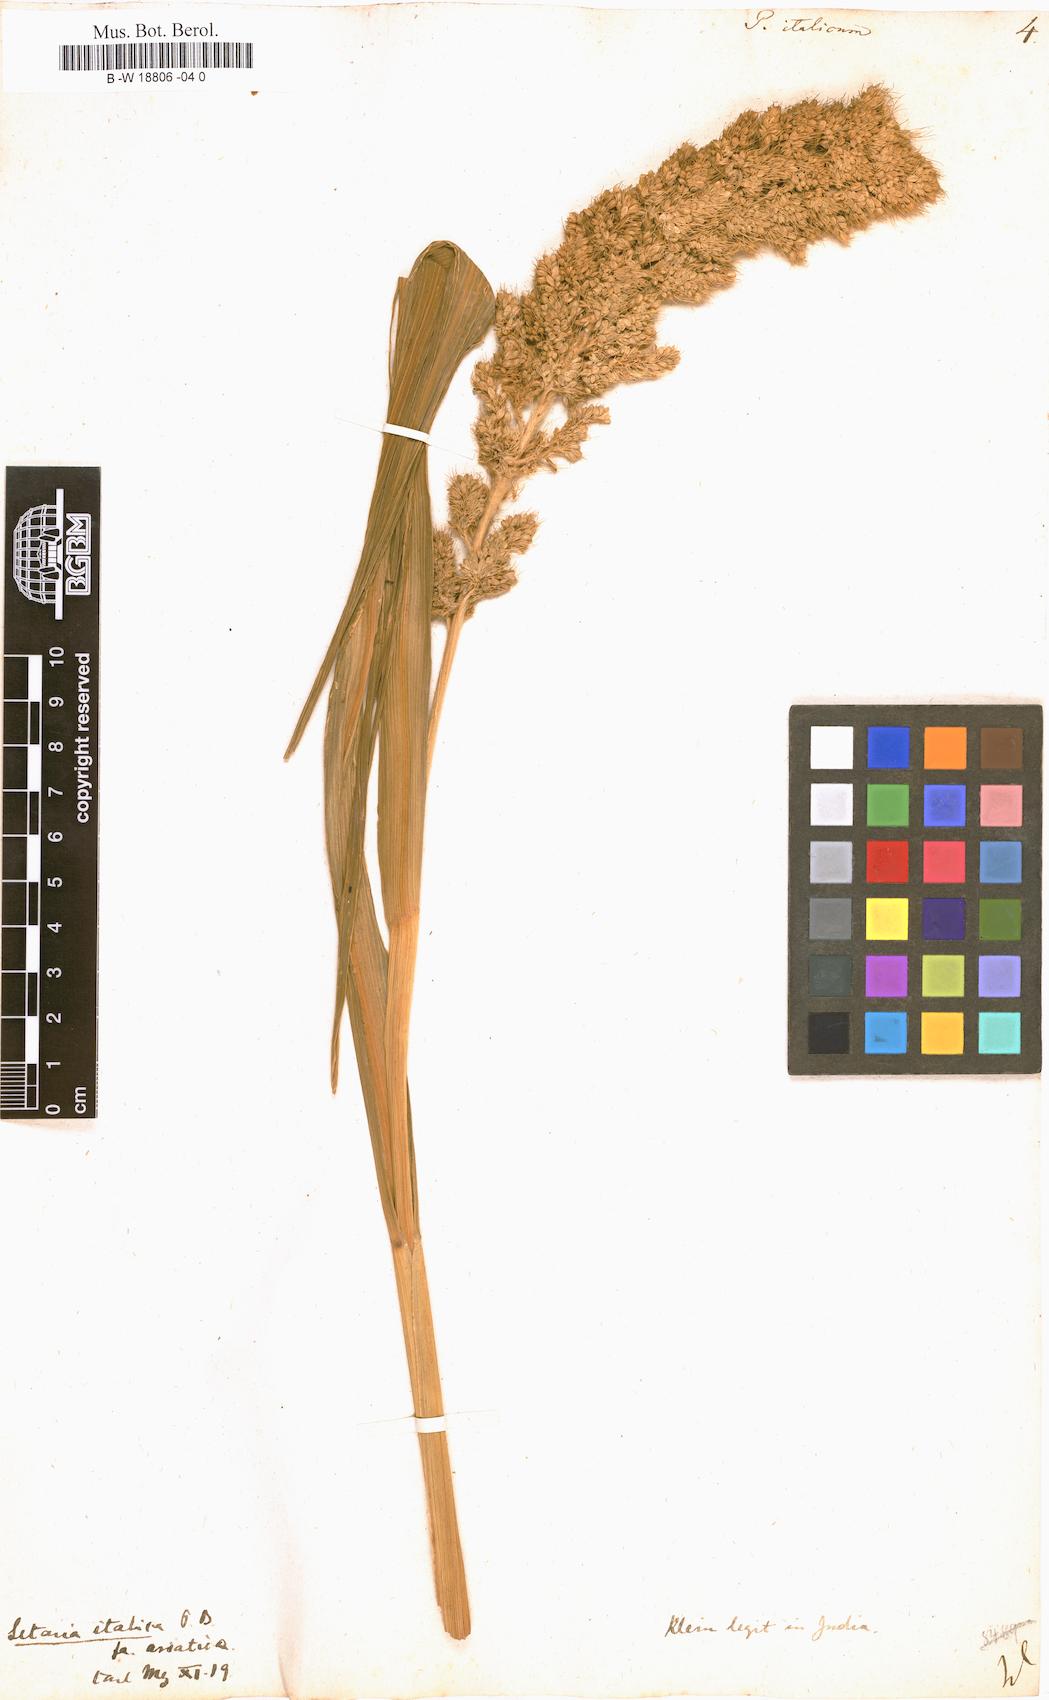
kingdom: Plantae
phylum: Tracheophyta
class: Liliopsida
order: Poales
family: Poaceae
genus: Setaria
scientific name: Setaria italica
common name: Foxtail bristle-grass
